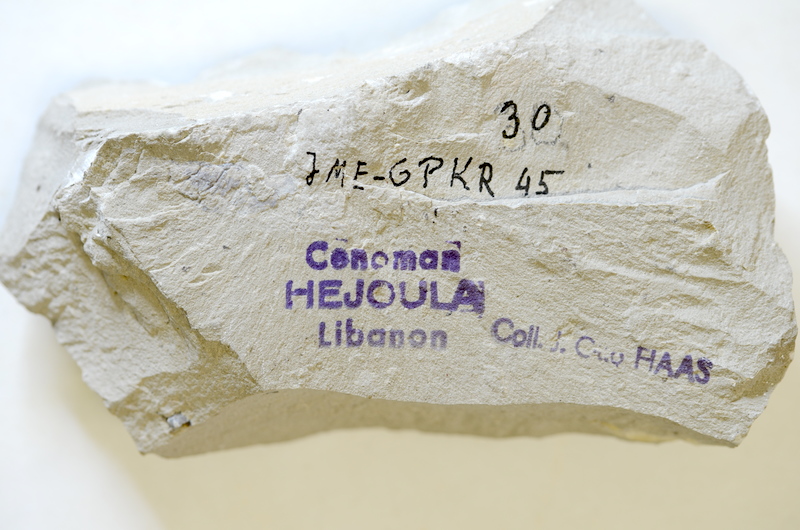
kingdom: Animalia
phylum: Chordata
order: Aulopiformes
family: Aspidopleuridae
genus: Aspidopleurus
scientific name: Aspidopleurus cataphractus
